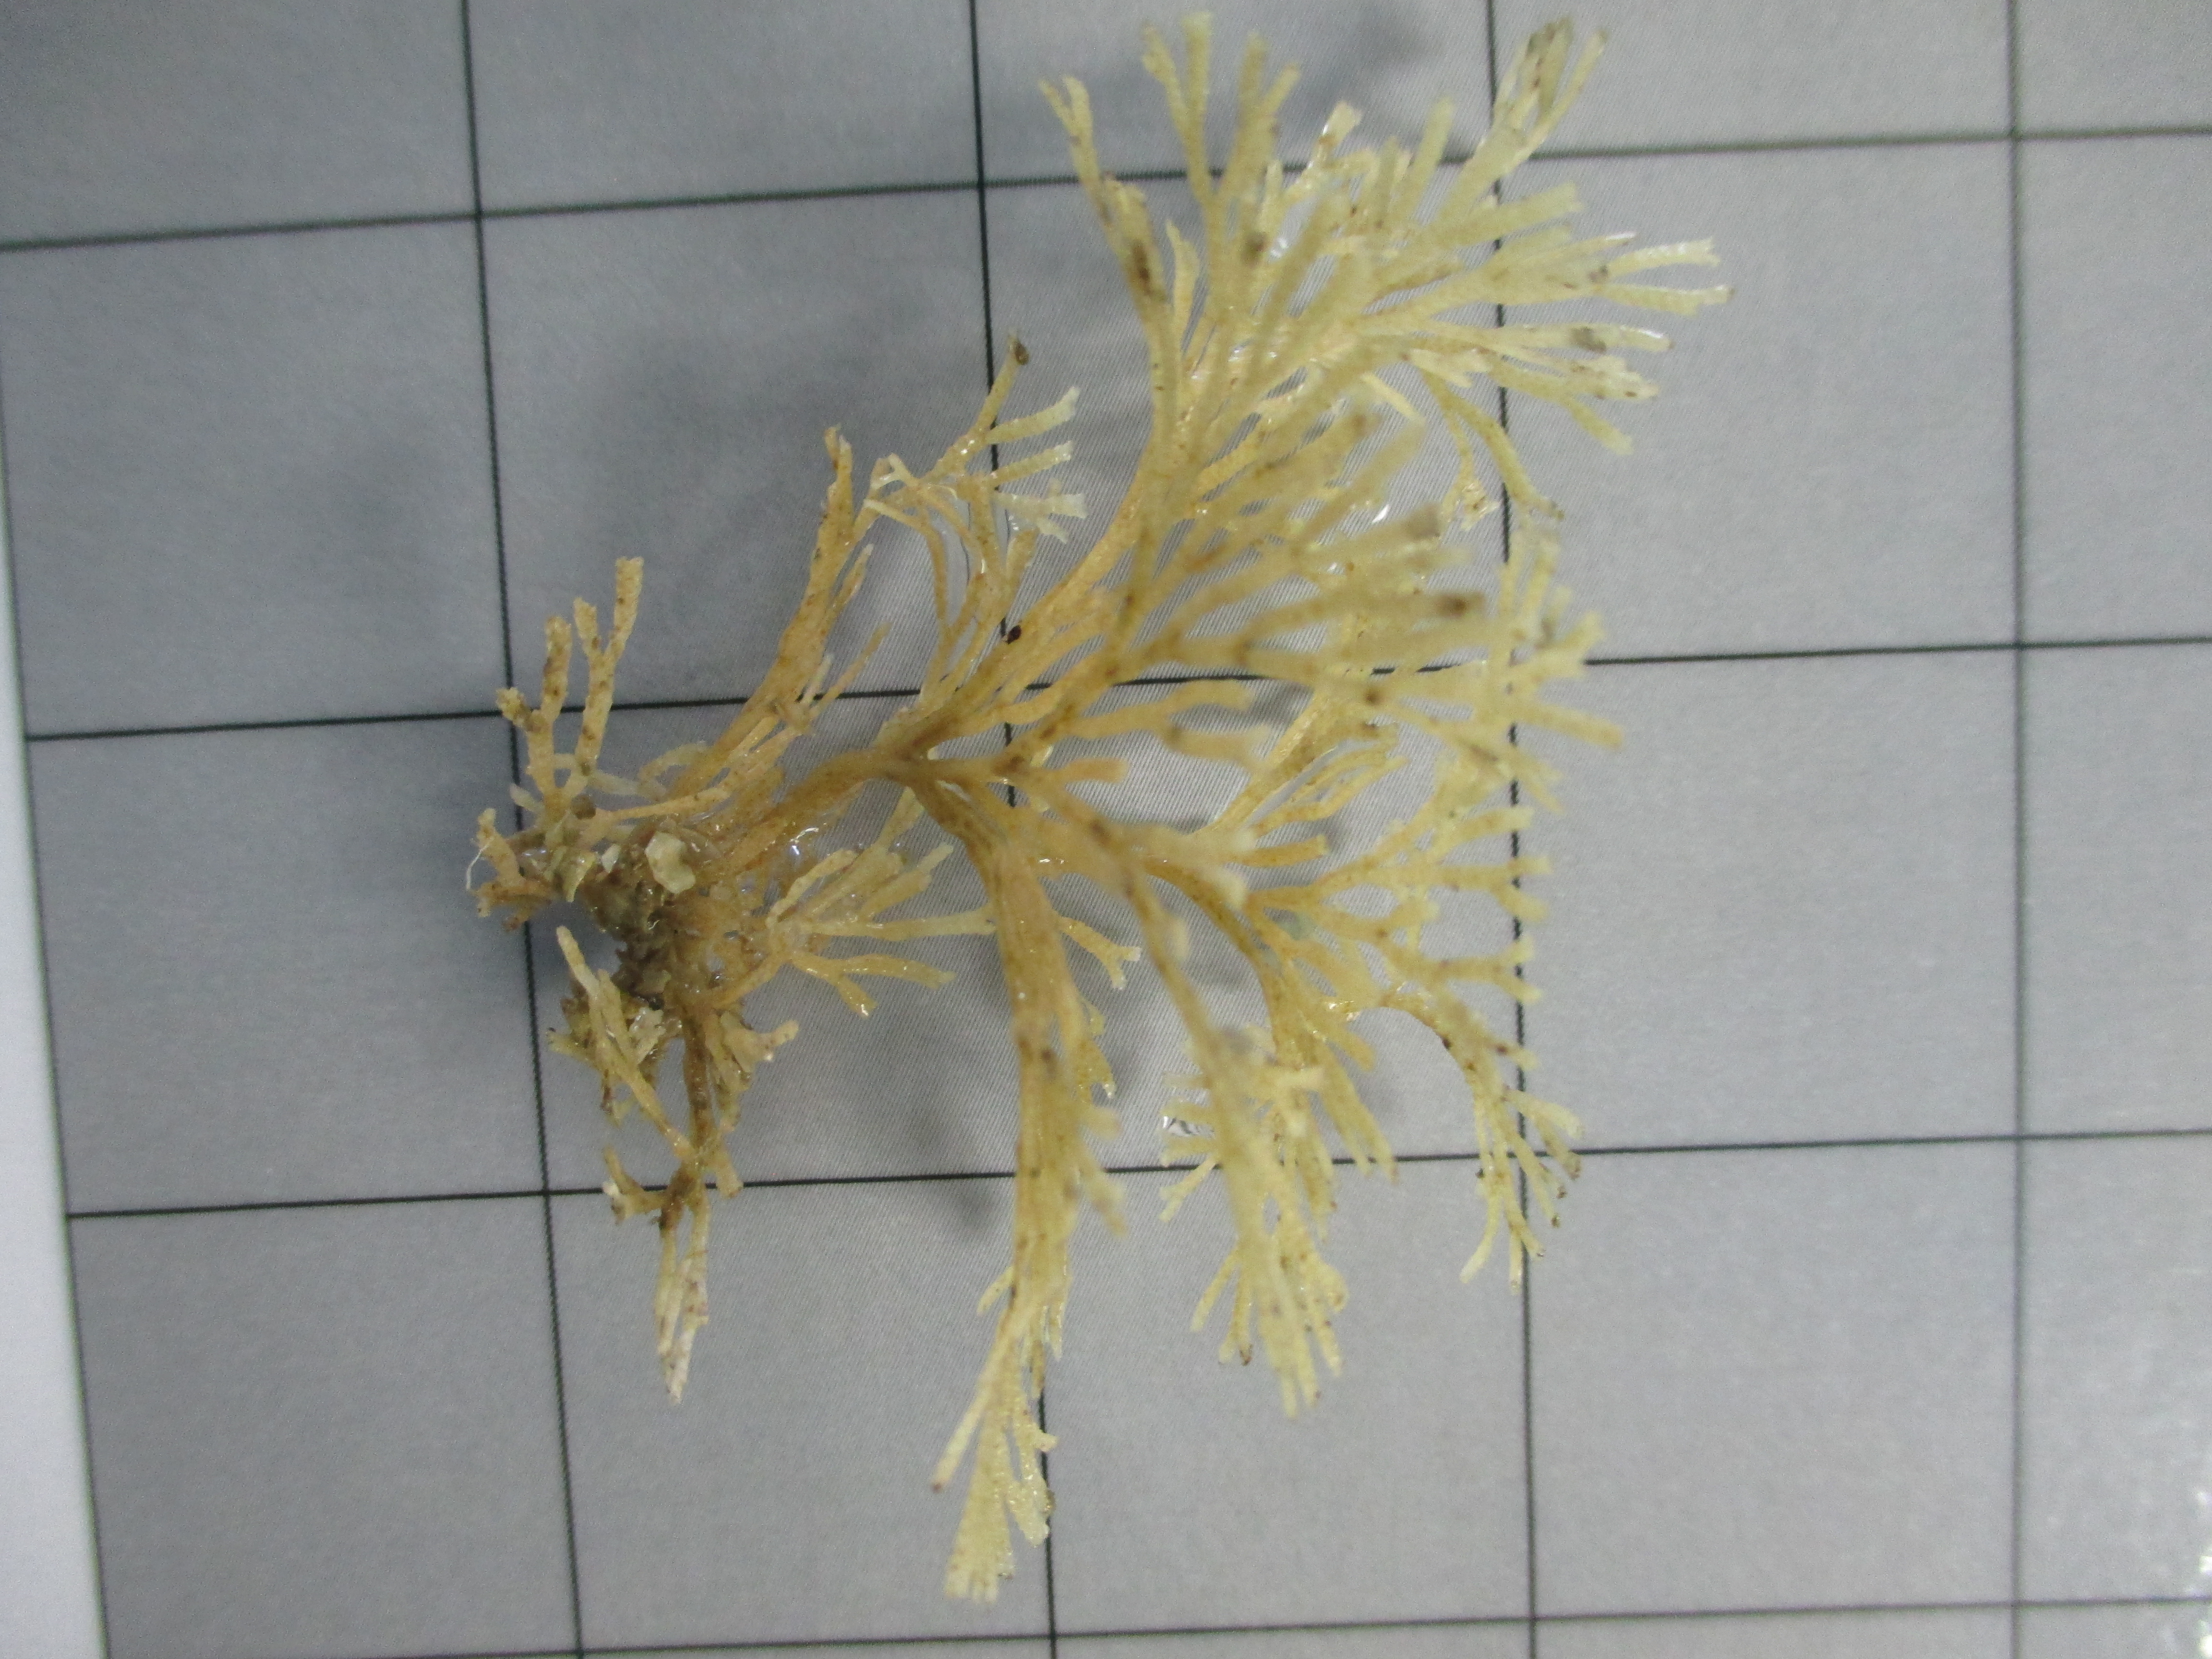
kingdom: Animalia
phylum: Bryozoa
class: Gymnolaemata
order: Cheilostomatida
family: Candidae
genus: Menipea
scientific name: Menipea triseriata
